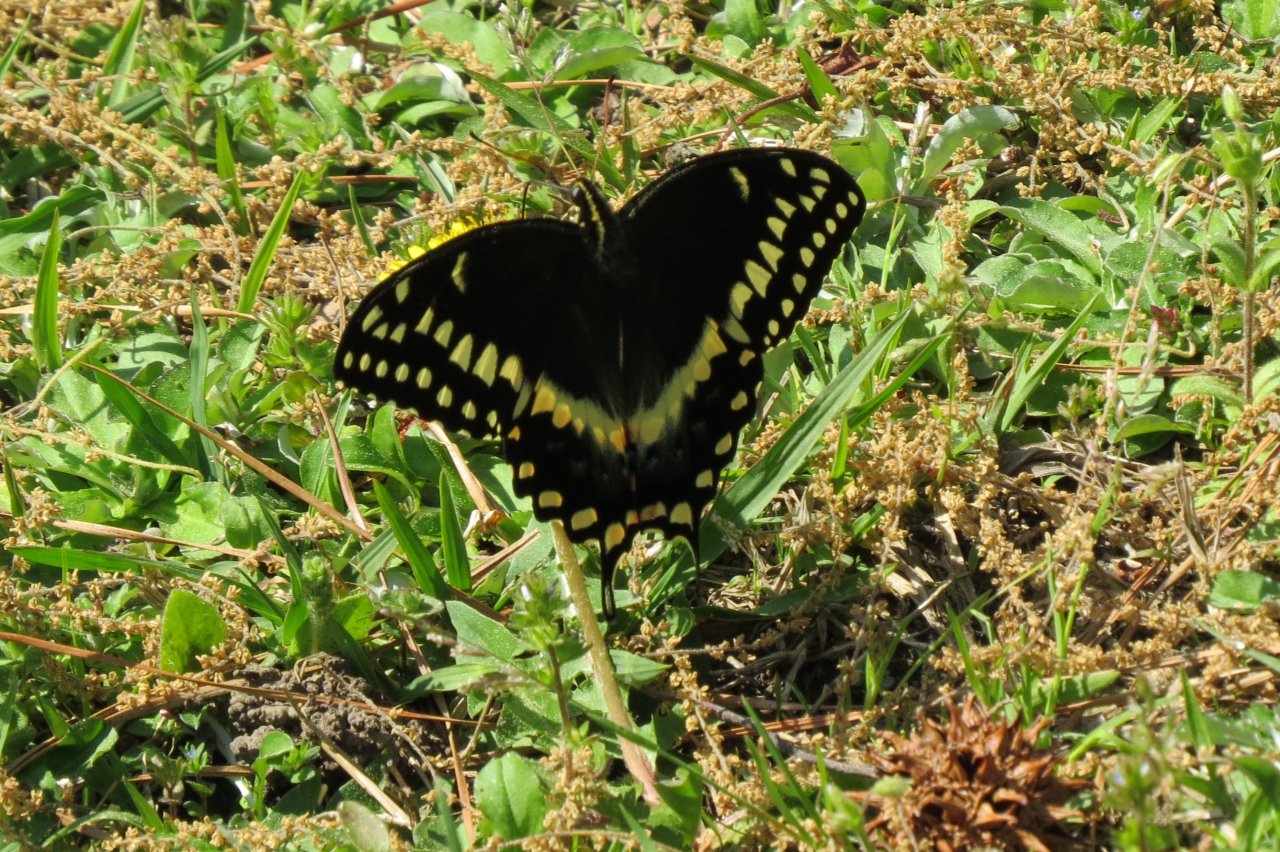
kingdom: Animalia
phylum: Arthropoda
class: Insecta
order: Lepidoptera
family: Papilionidae
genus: Pterourus
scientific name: Pterourus palamedes
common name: Palamedes Swallowtail
